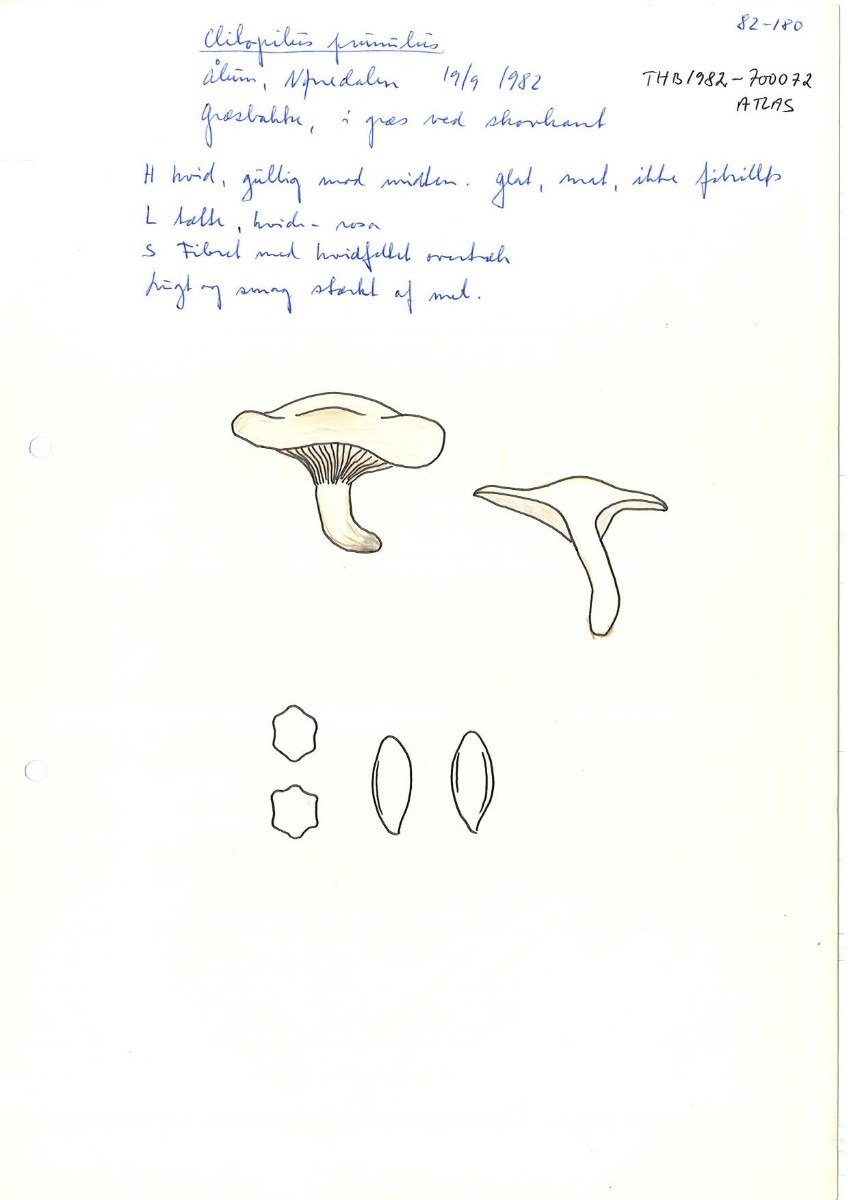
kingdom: Fungi
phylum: Basidiomycota
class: Agaricomycetes
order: Agaricales
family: Entolomataceae
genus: Clitopilus
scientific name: Clitopilus prunulus
